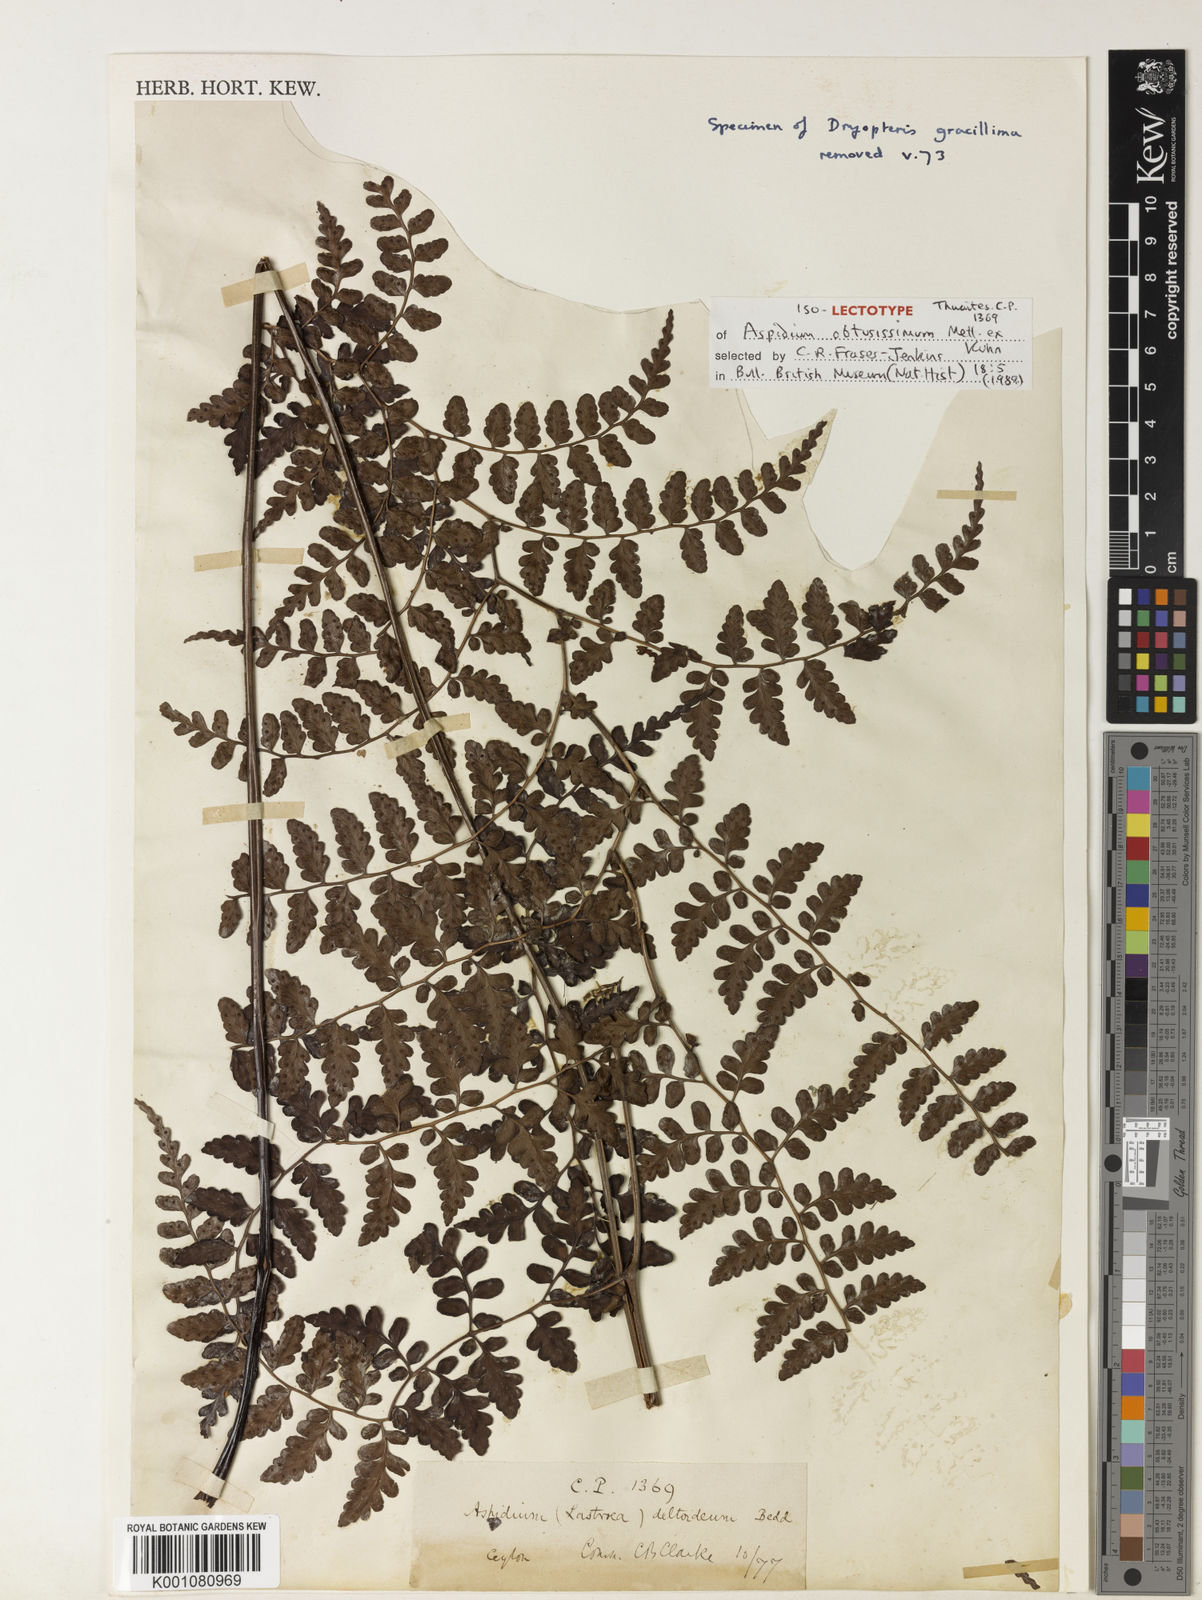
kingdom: Plantae
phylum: Tracheophyta
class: Polypodiopsida
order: Polypodiales
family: Dryopteridaceae
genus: Dryopteris
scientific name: Dryopteris
